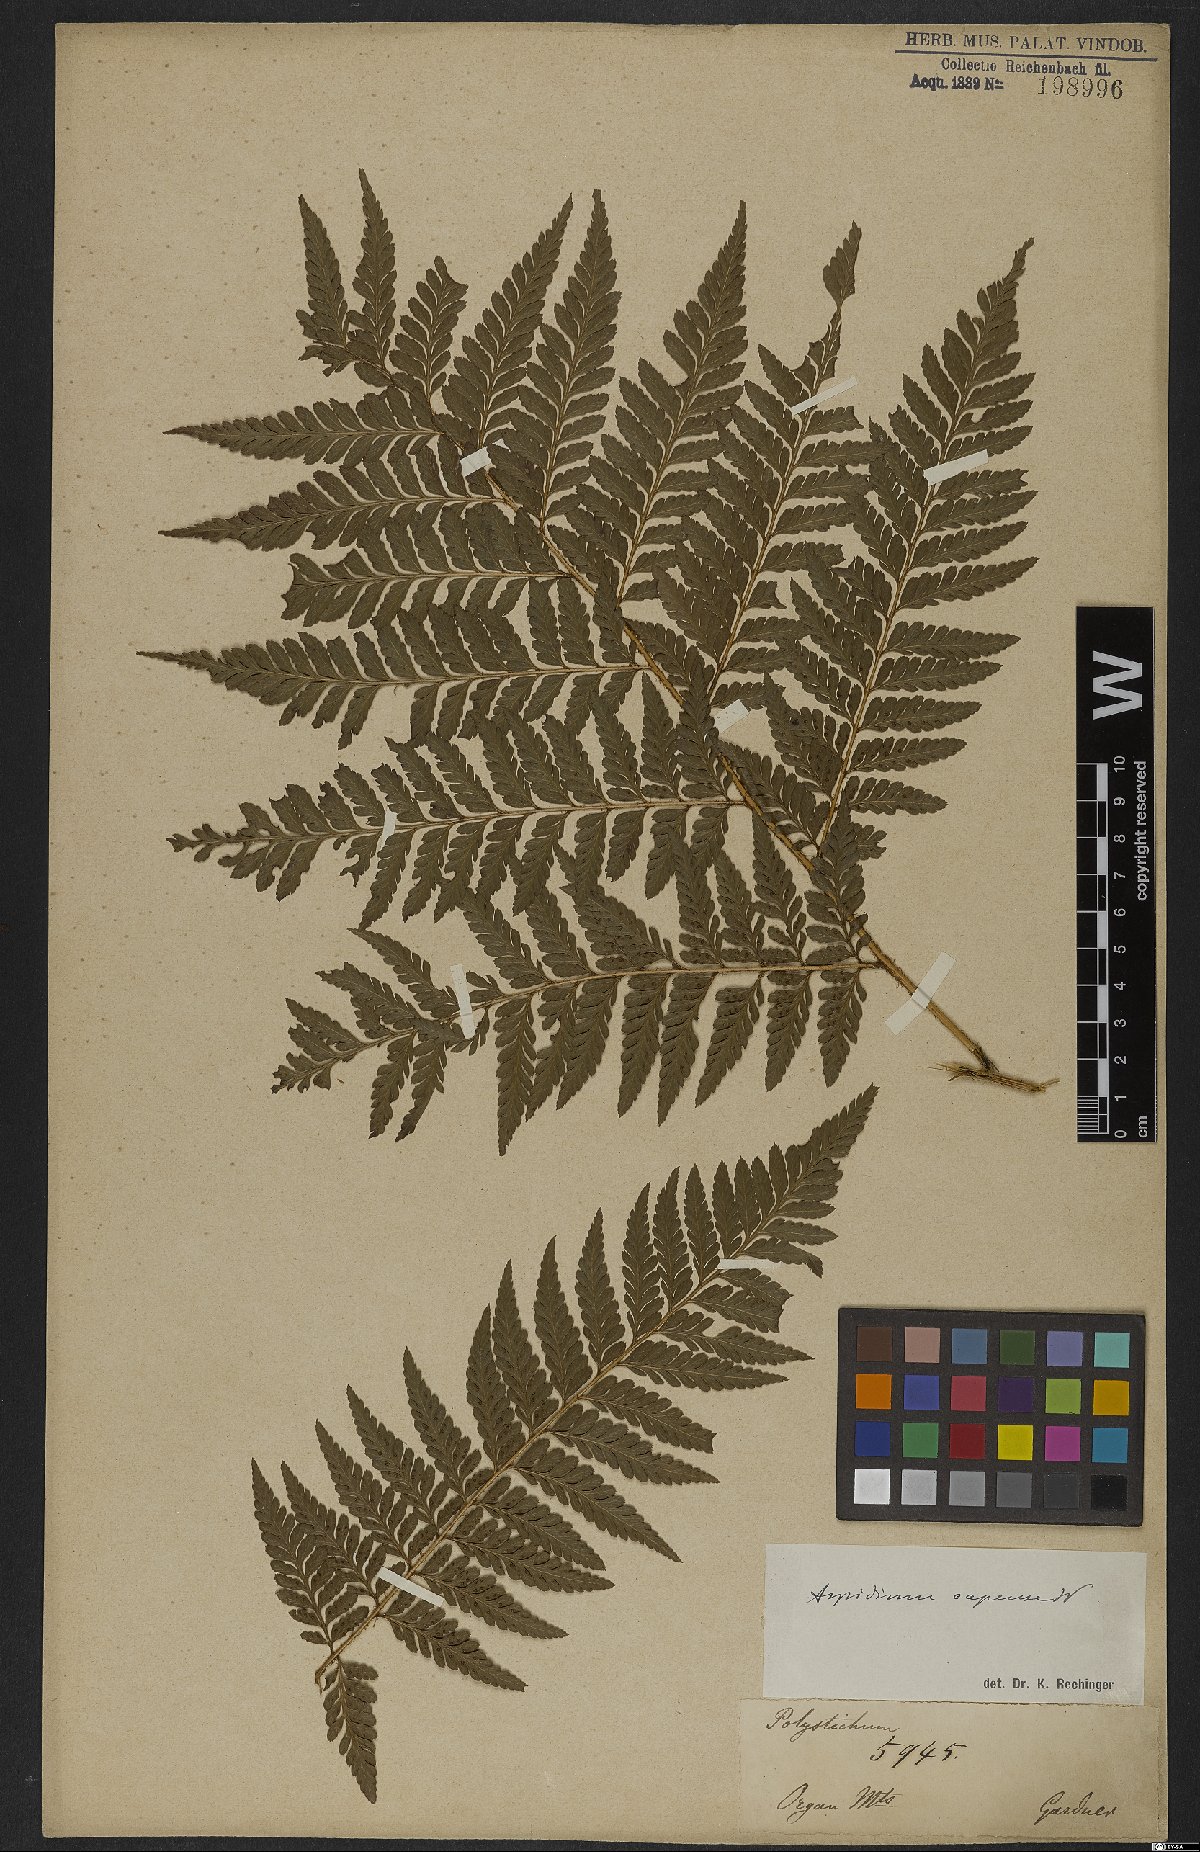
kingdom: Plantae
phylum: Tracheophyta
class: Polypodiopsida
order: Polypodiales
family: Dryopteridaceae
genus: Rumohra
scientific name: Rumohra adiantiformis
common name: Leather fern
